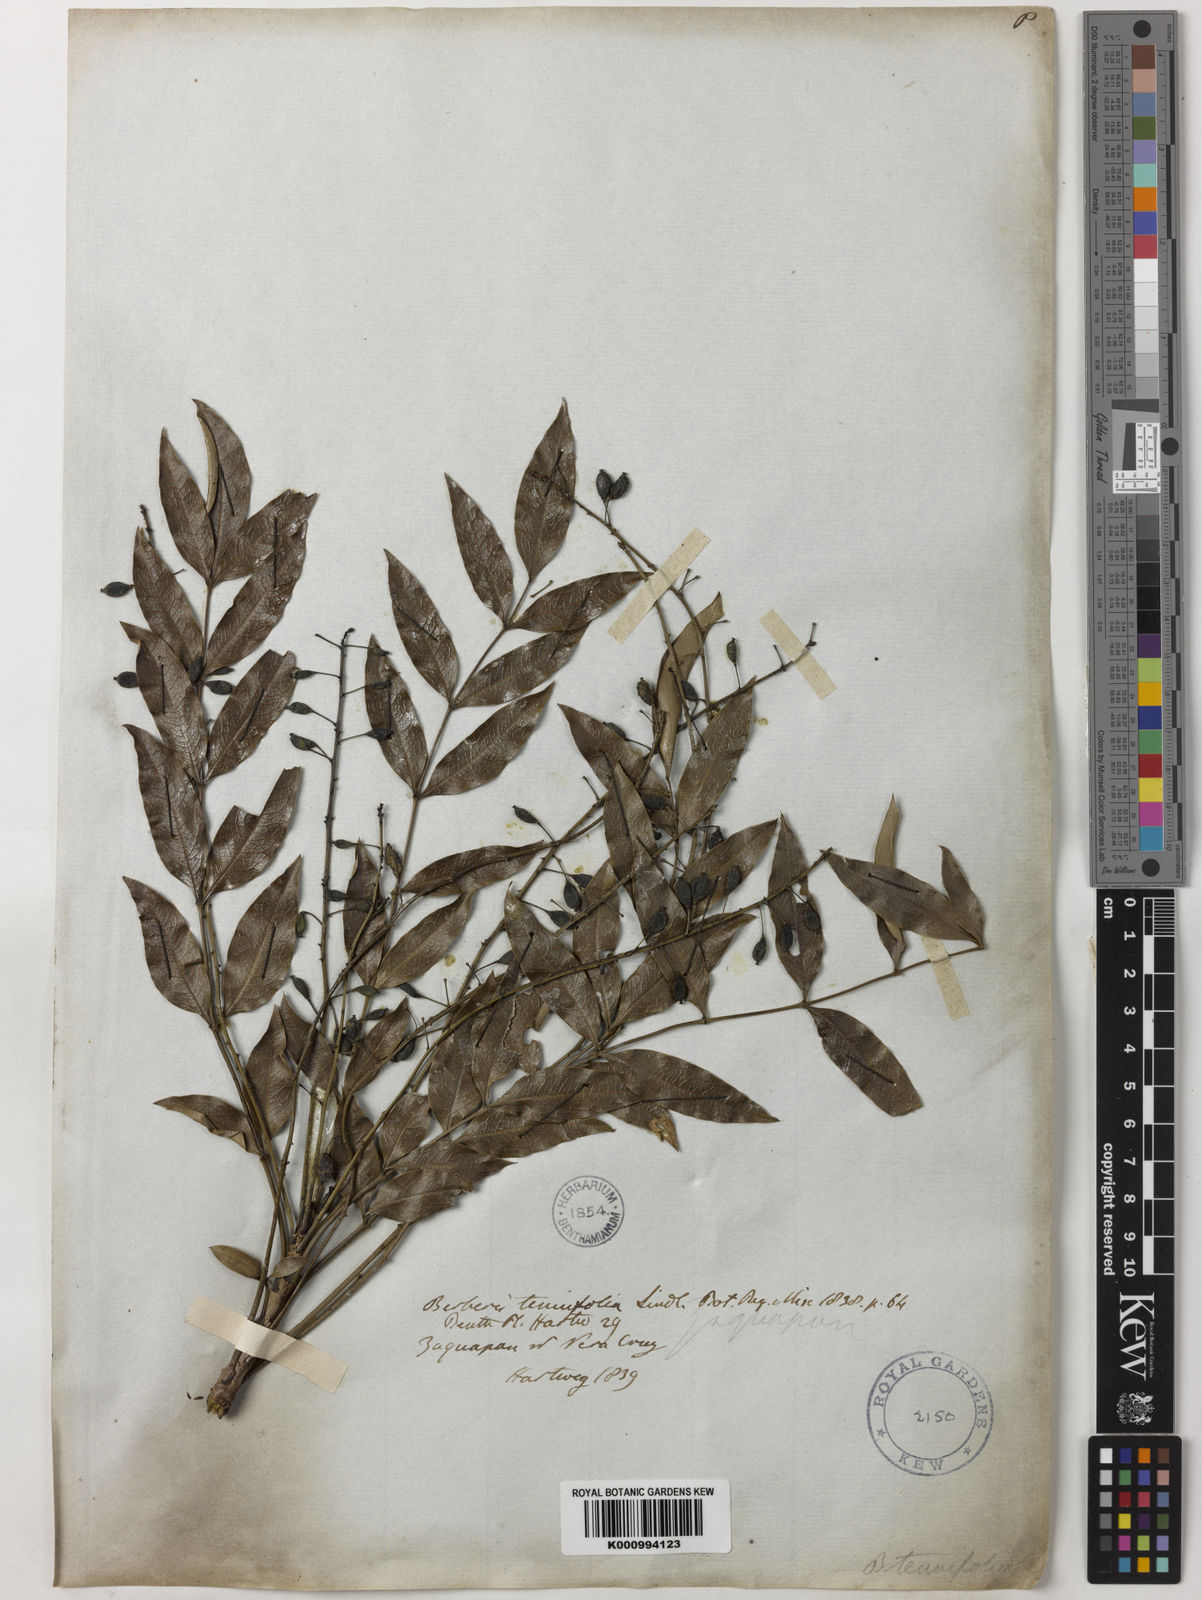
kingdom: Plantae
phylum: Tracheophyta
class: Magnoliopsida
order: Ranunculales
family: Berberidaceae
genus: Mahonia
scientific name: Mahonia tenuifolia
